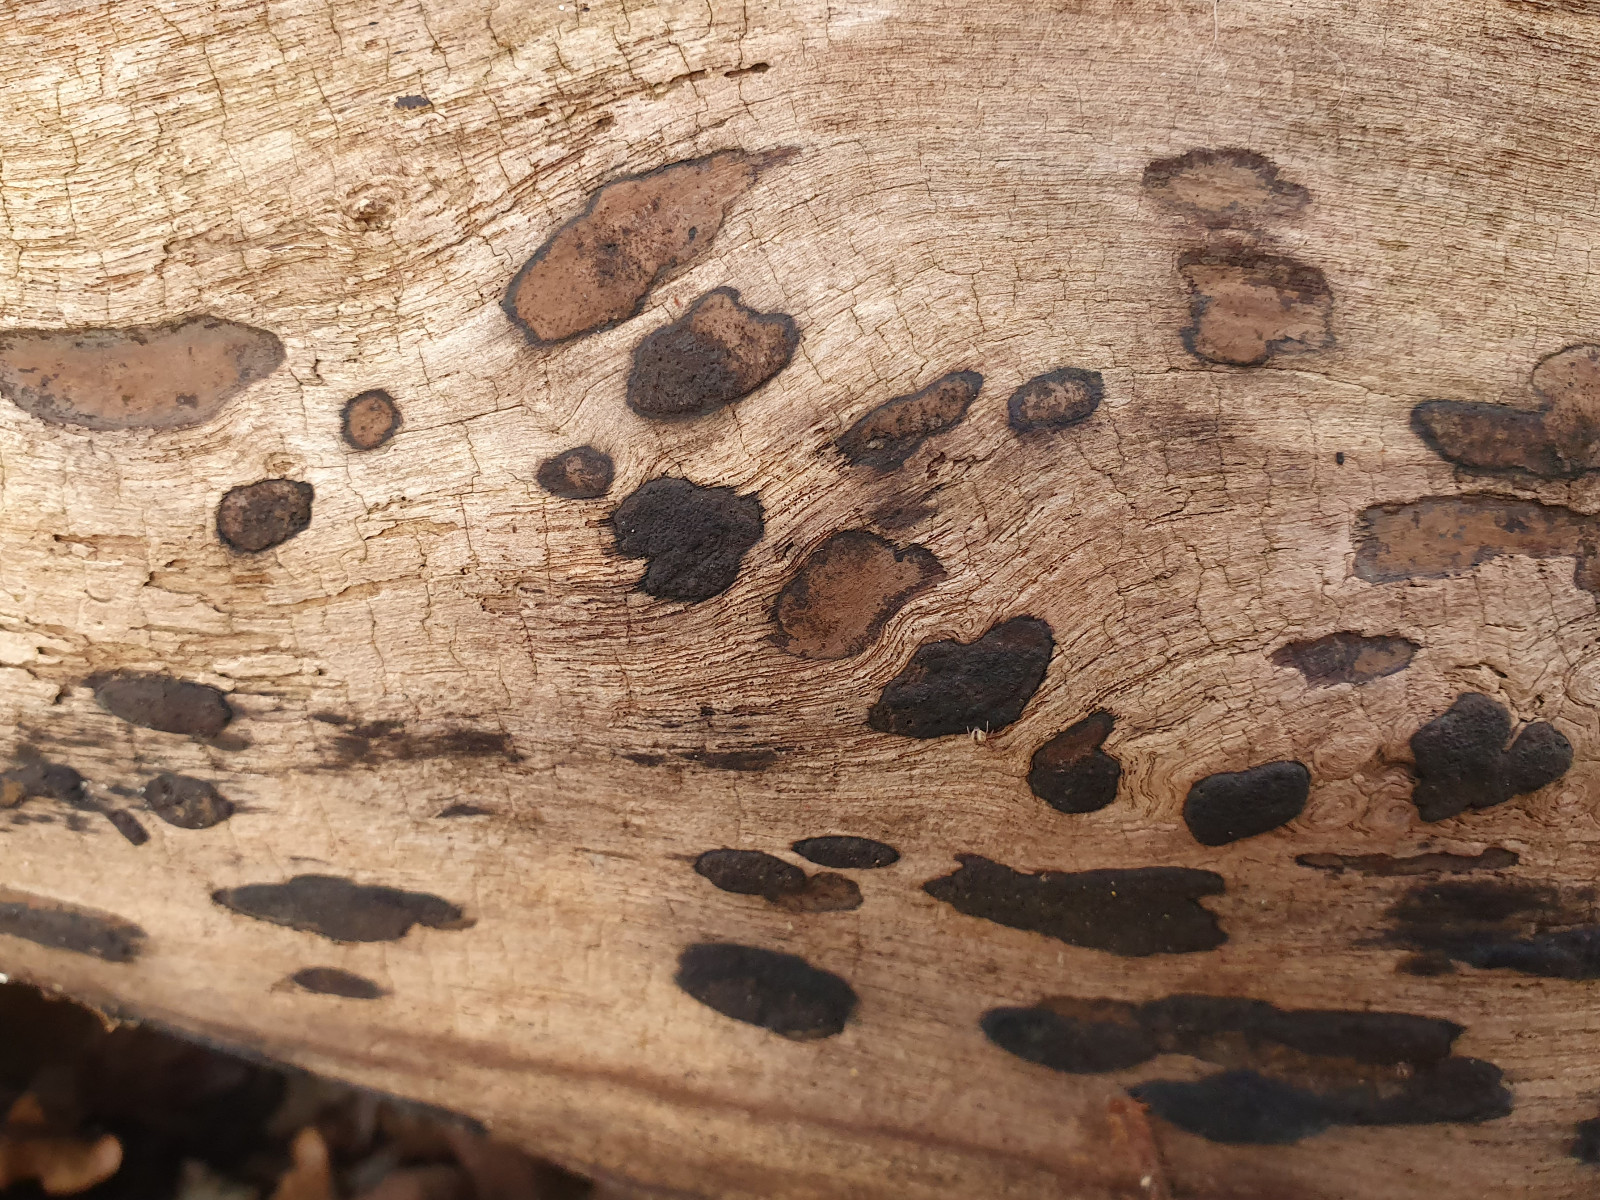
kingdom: Fungi
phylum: Ascomycota
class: Sordariomycetes
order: Xylariales
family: Hypoxylaceae
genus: Hypoxylon
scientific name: Hypoxylon petriniae
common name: nedsænket kulbær
